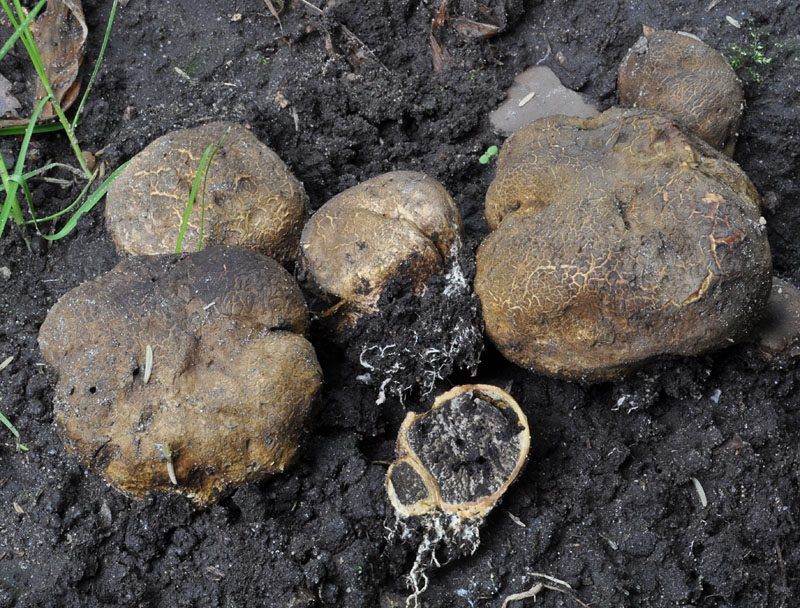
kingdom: Fungi
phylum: Basidiomycota
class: Agaricomycetes
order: Boletales
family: Sclerodermataceae
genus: Scleroderma
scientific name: Scleroderma cepa
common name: rødbrun bruskbold
